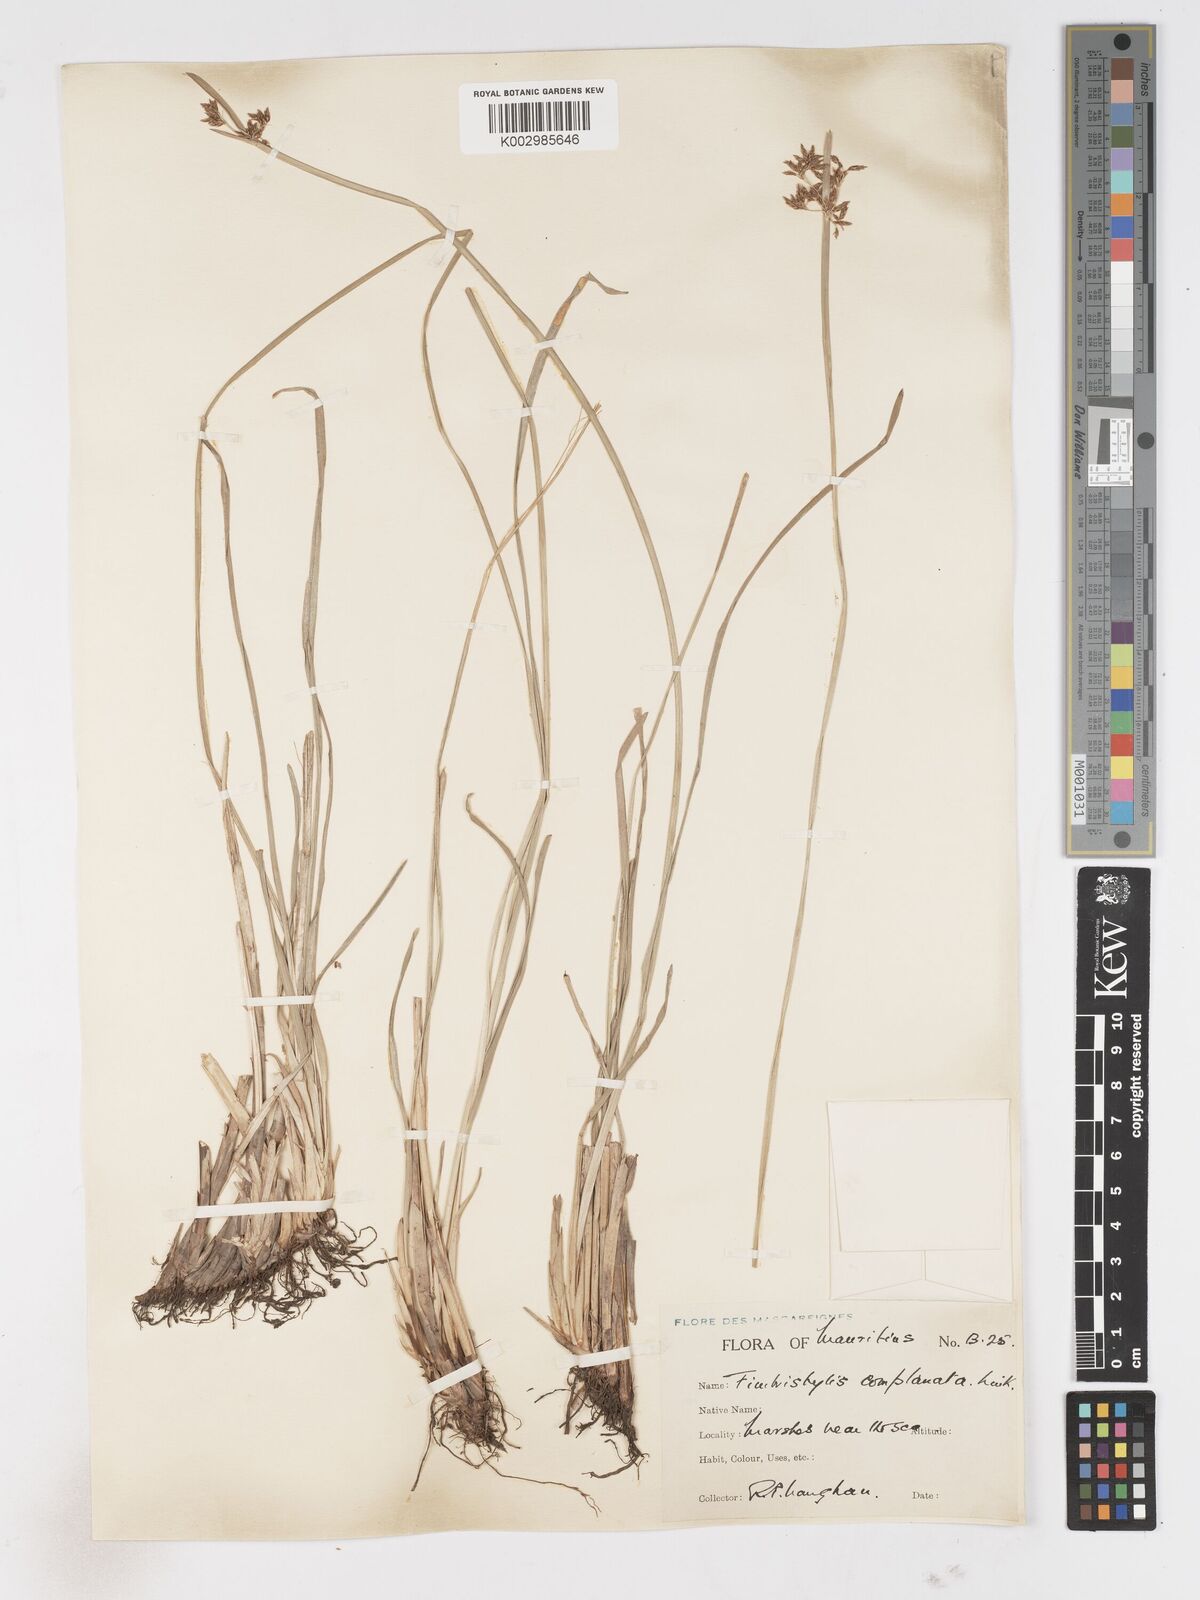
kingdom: Plantae
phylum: Tracheophyta
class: Liliopsida
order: Poales
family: Cyperaceae
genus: Fimbristylis
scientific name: Fimbristylis complanata
